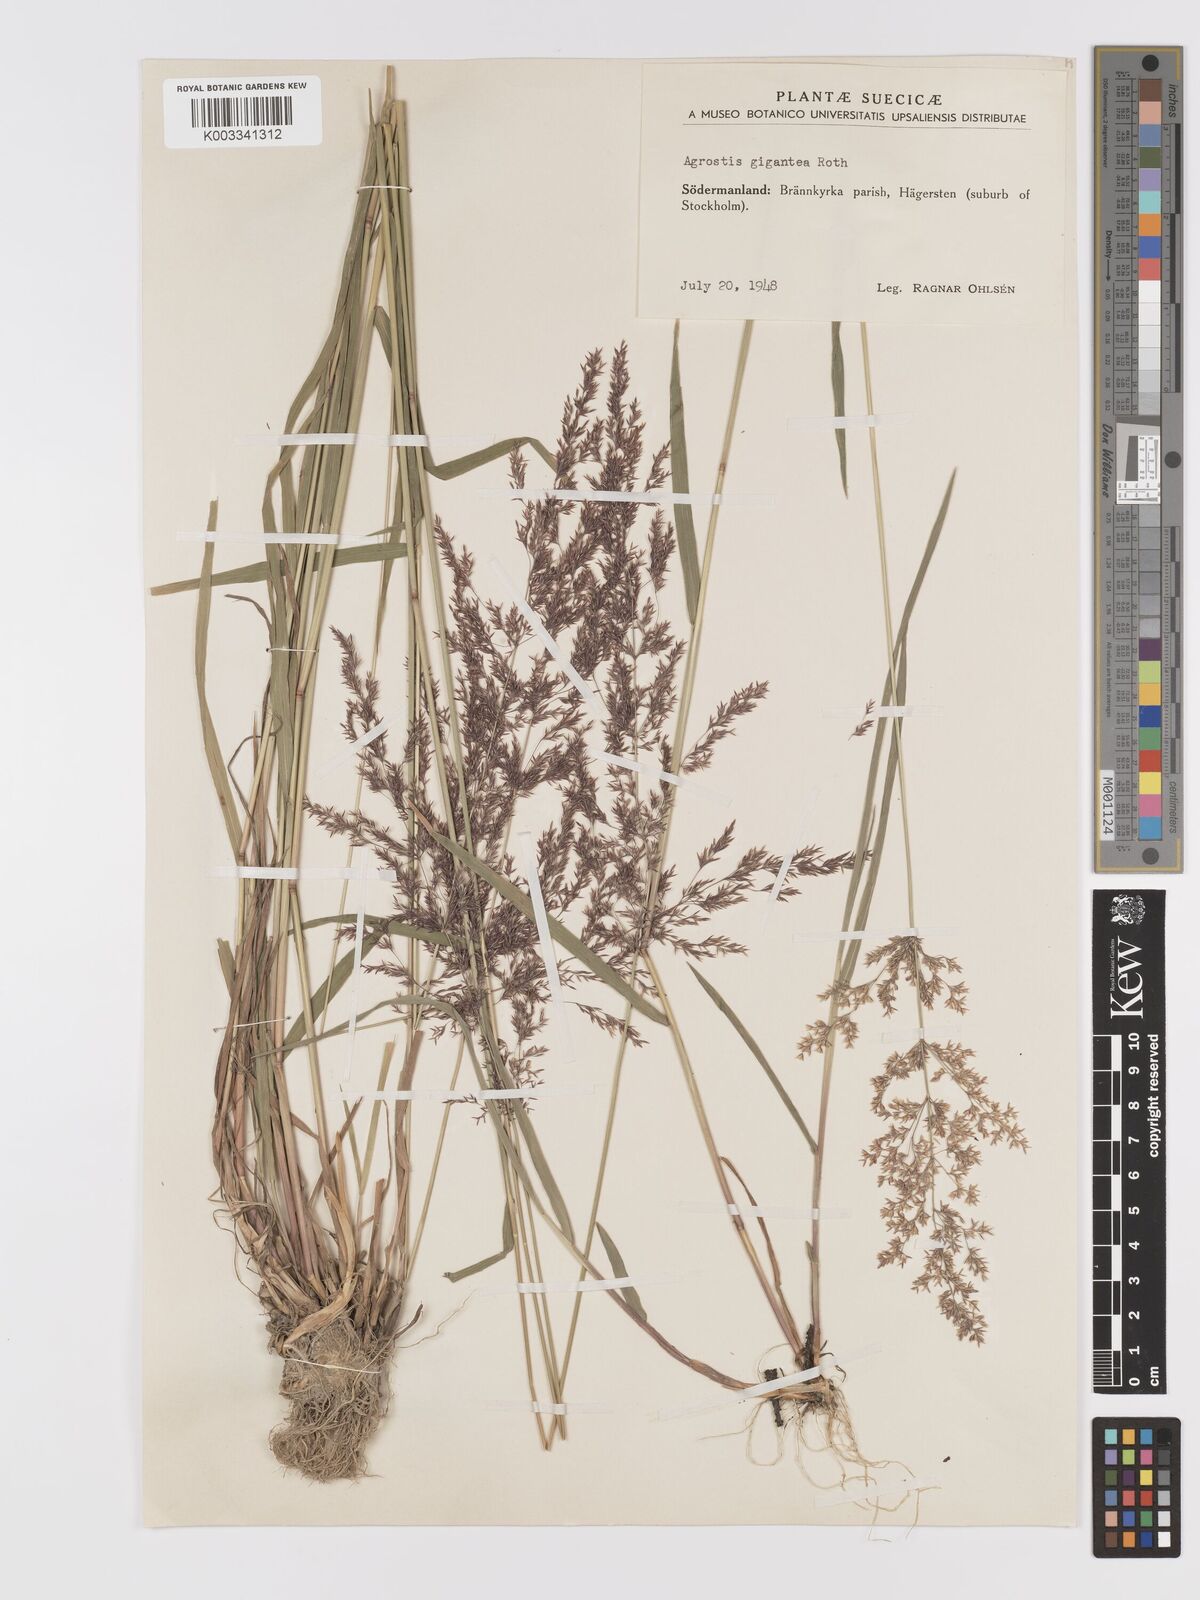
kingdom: Plantae
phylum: Tracheophyta
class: Liliopsida
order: Poales
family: Poaceae
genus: Agrostis
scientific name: Agrostis gigantea
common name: Black bent
